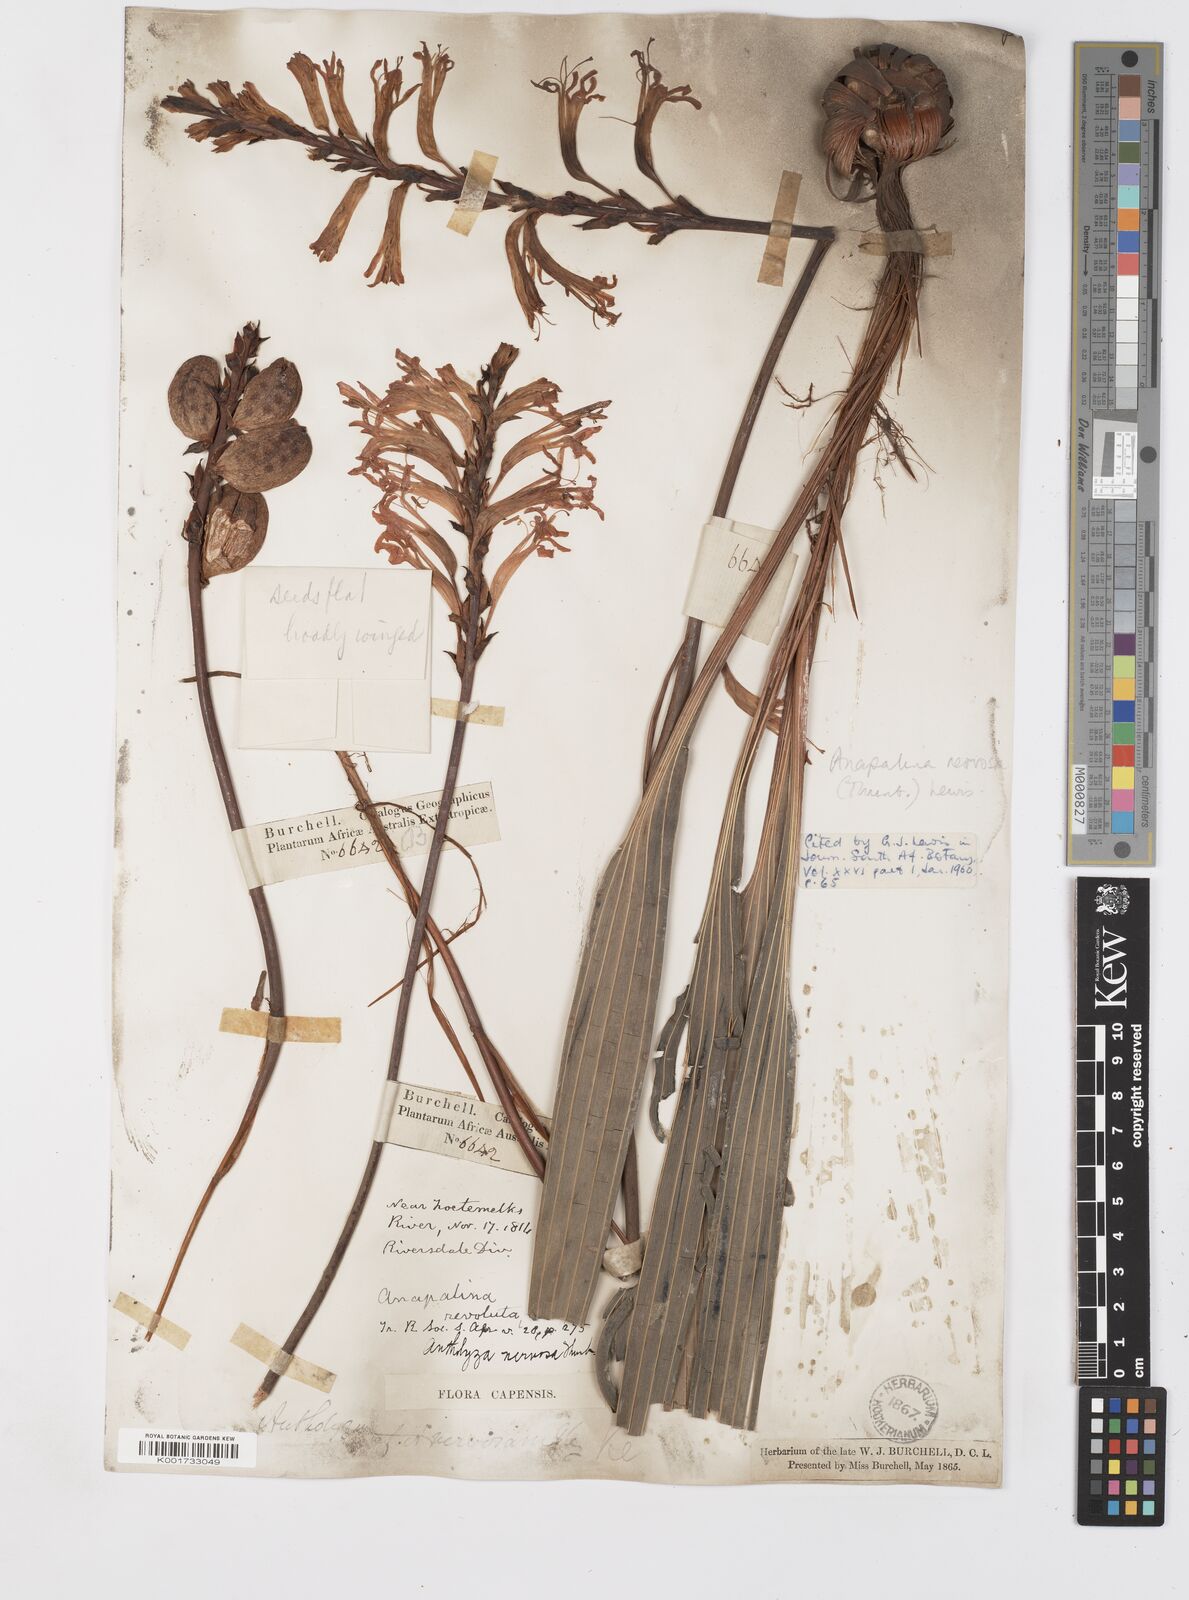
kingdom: Plantae
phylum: Tracheophyta
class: Liliopsida
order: Asparagales
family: Iridaceae
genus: Tritoniopsis
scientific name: Tritoniopsis nervosa
